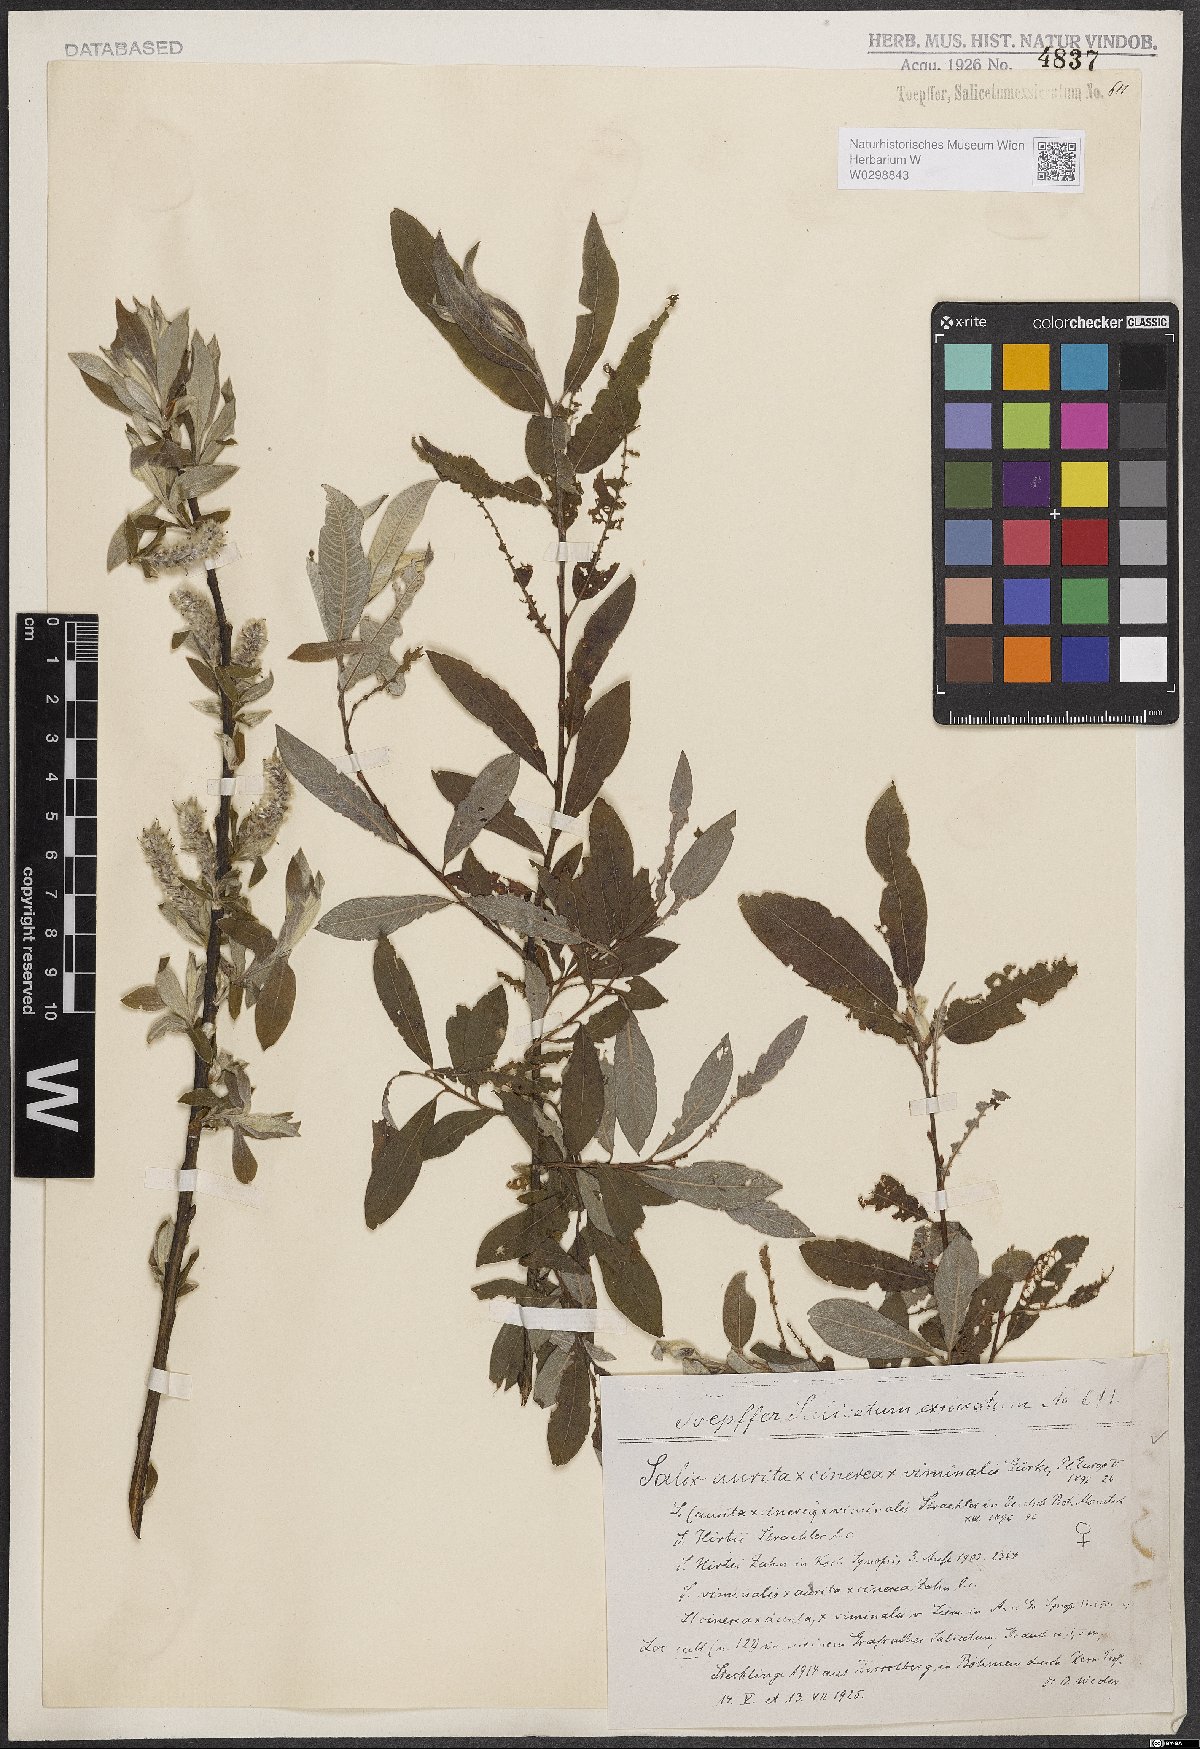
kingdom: Plantae
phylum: Tracheophyta
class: Magnoliopsida
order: Malpighiales
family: Salicaceae
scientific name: Salicaceae
